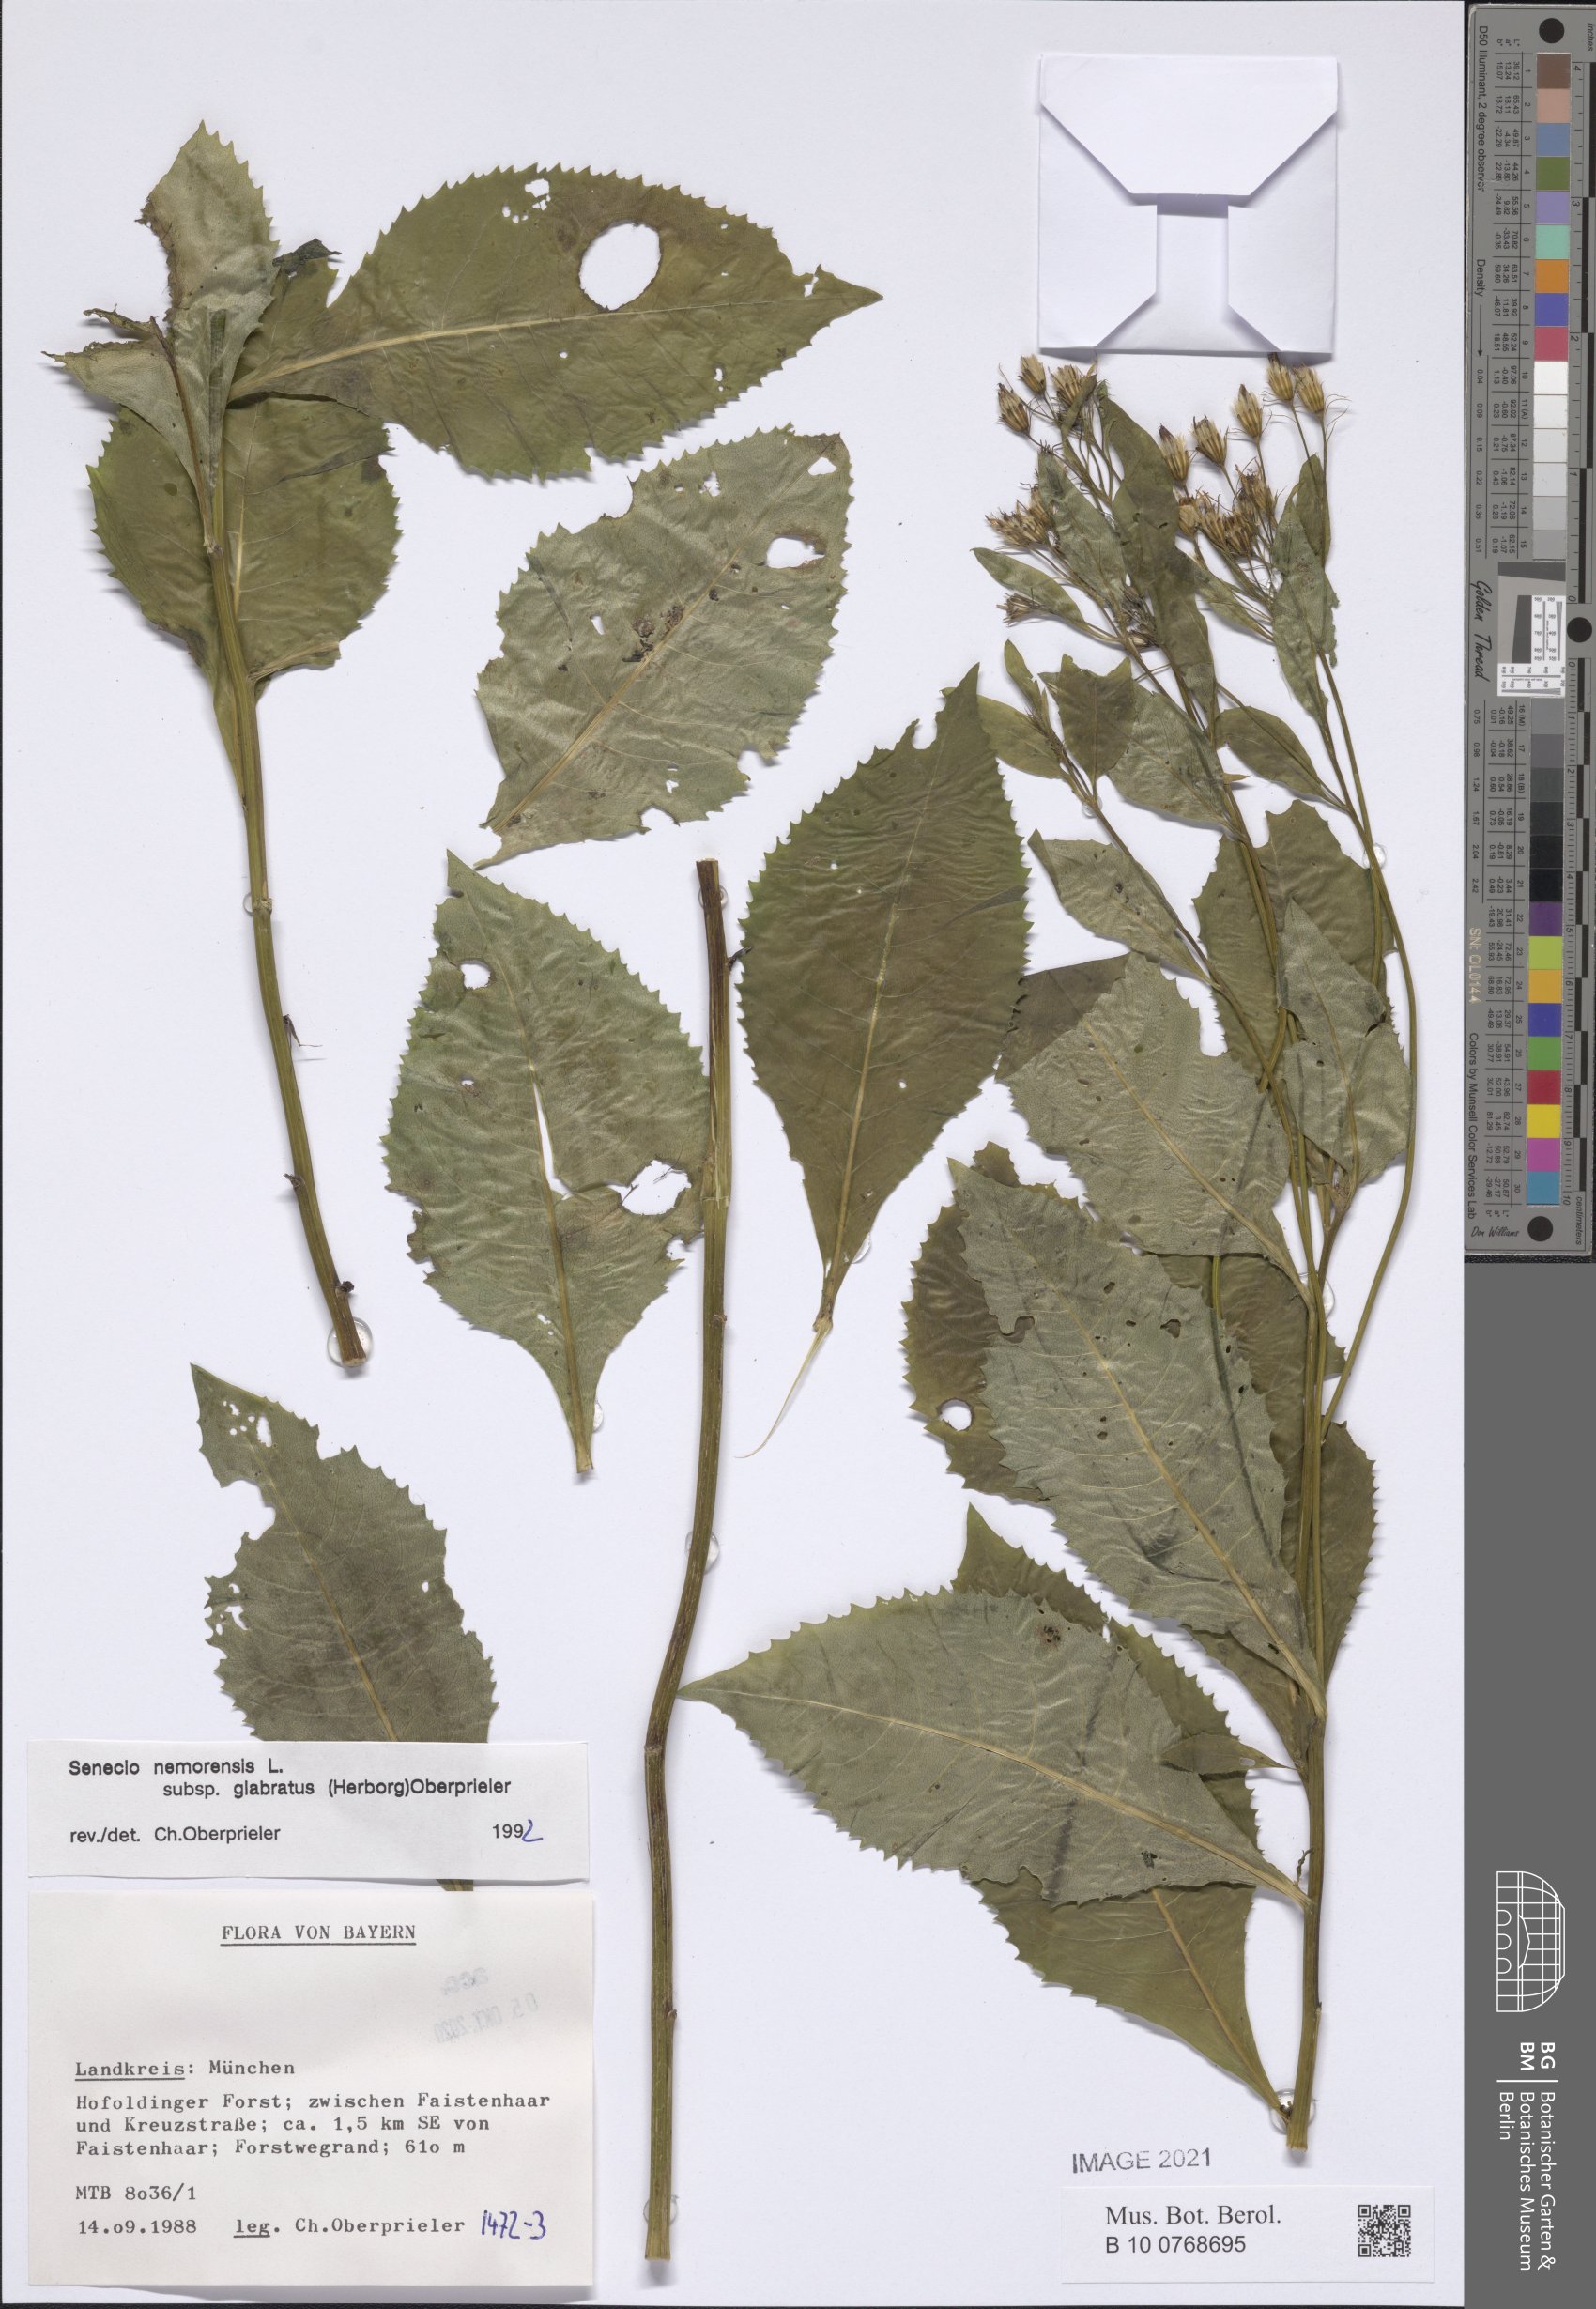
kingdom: Plantae
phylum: Tracheophyta
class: Magnoliopsida
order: Asterales
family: Asteraceae
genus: Senecio
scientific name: Senecio germanicus
